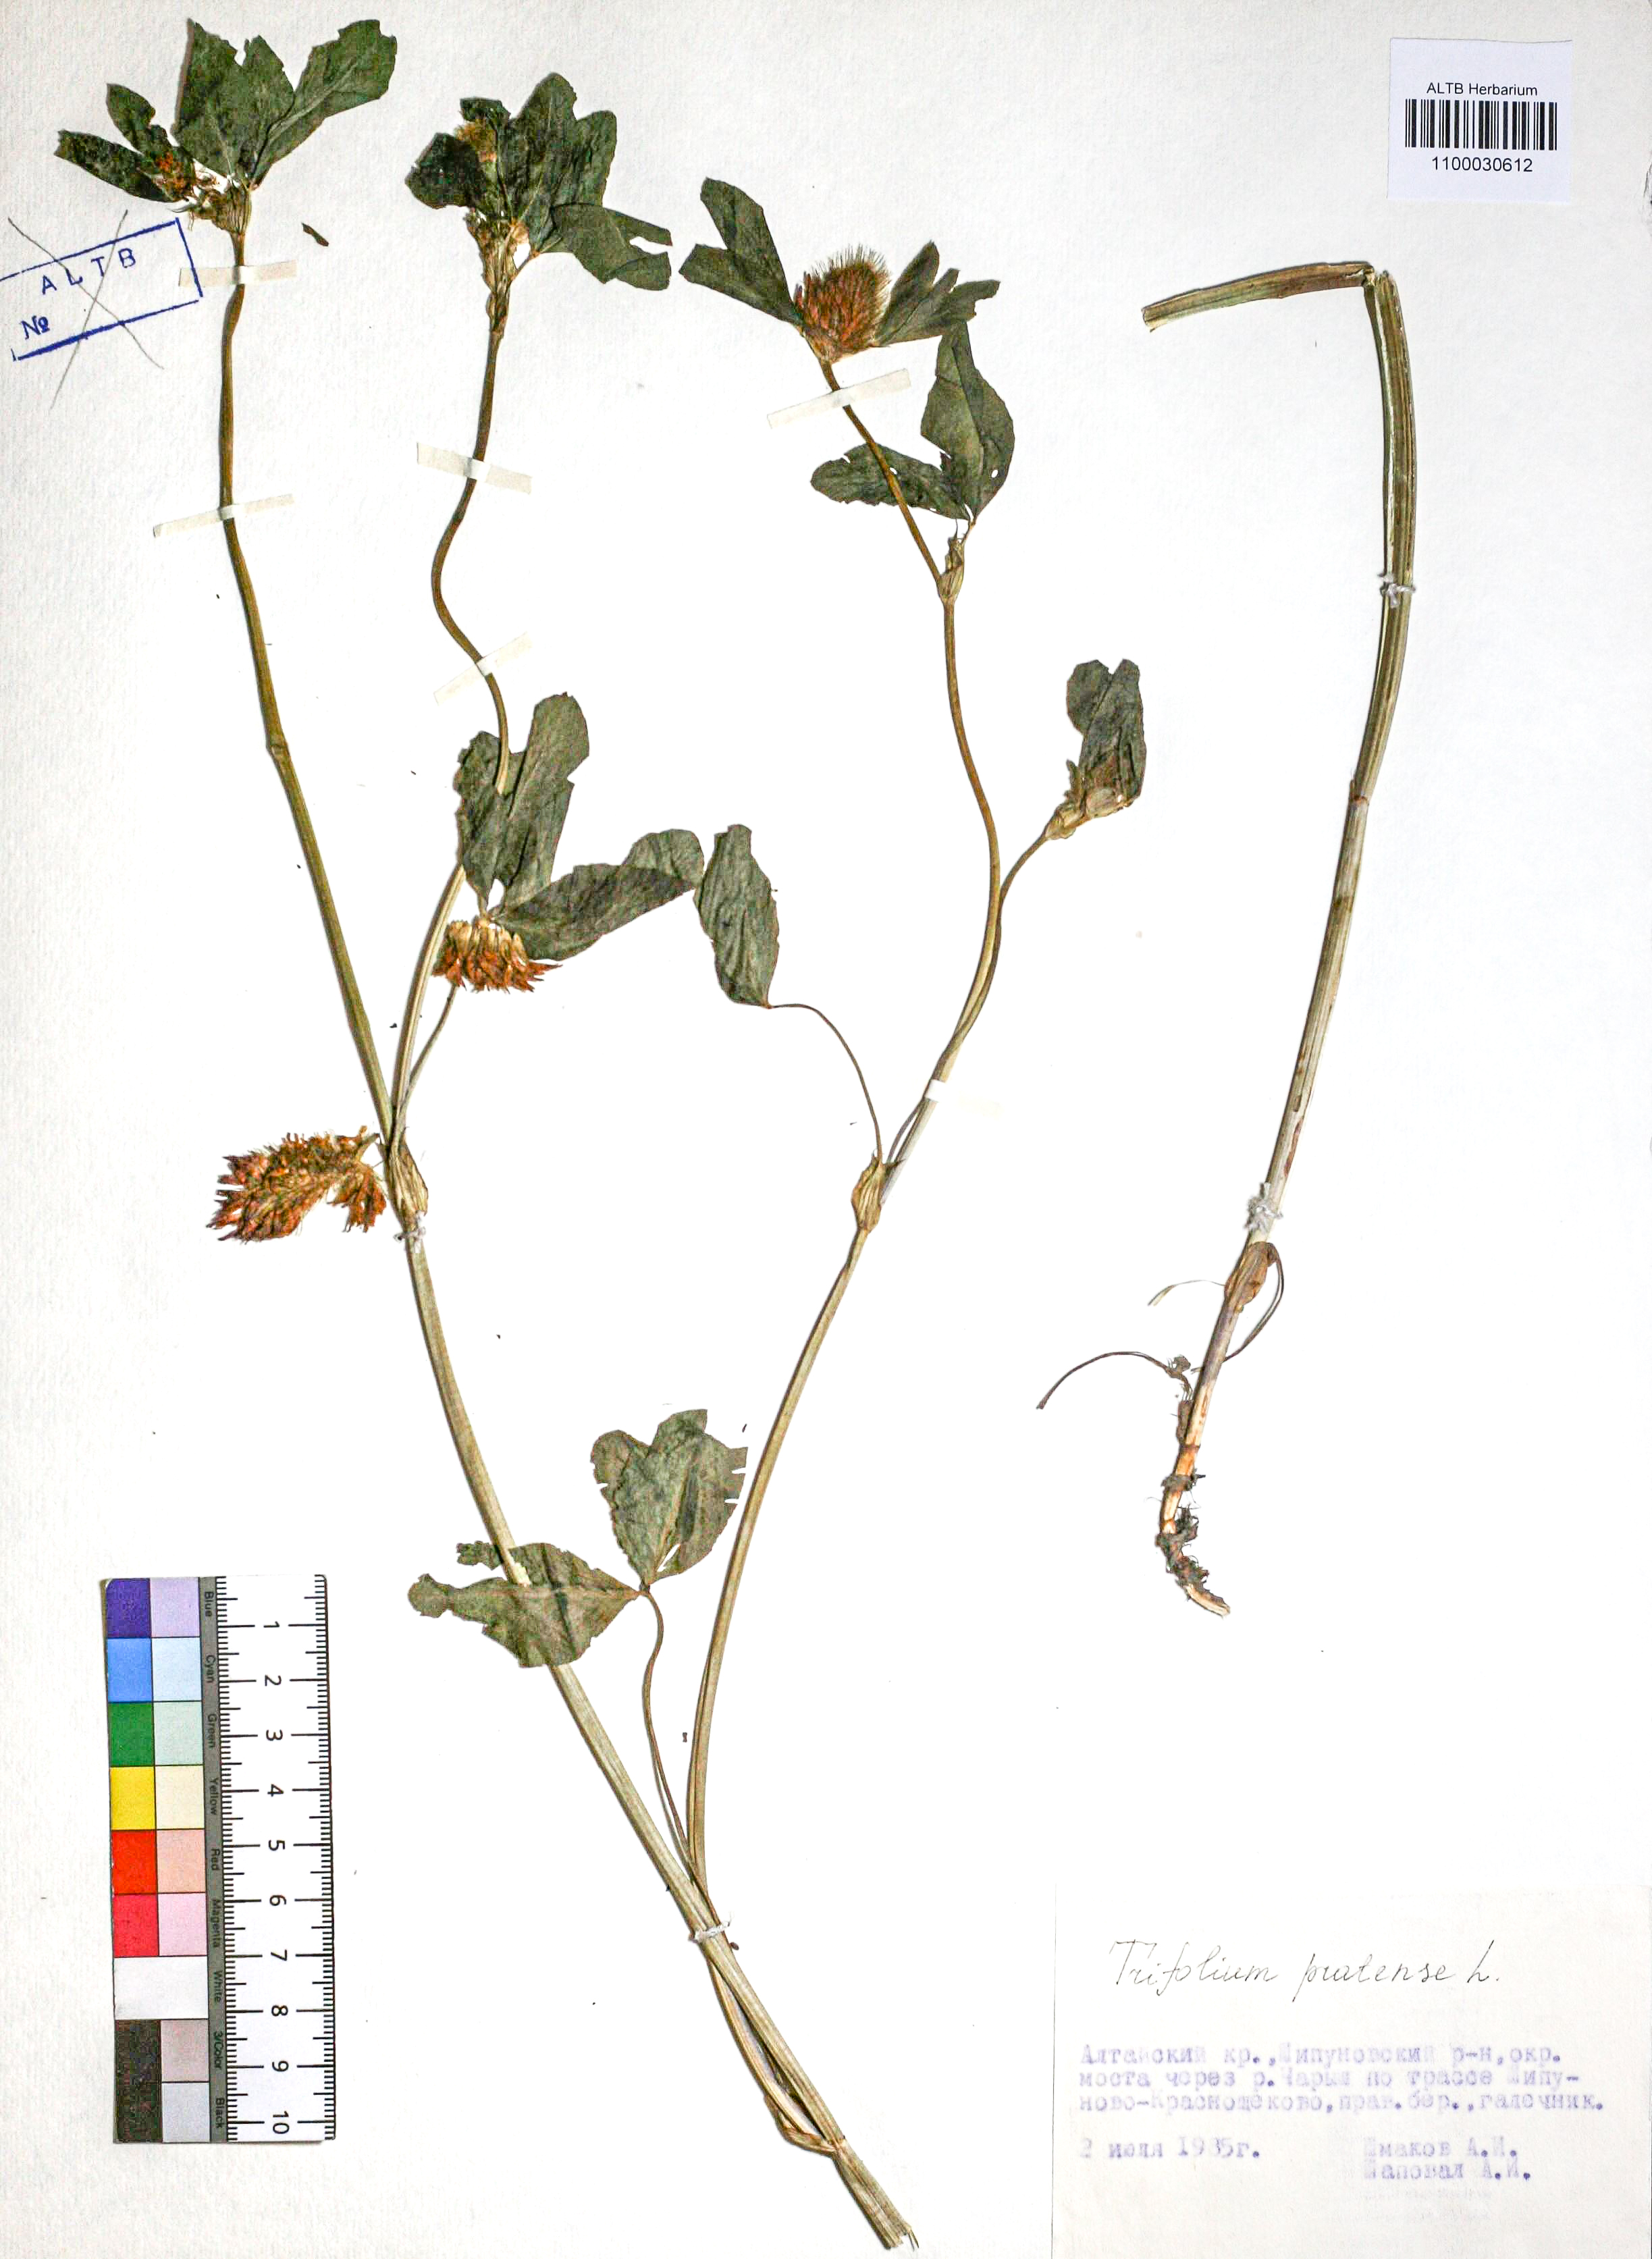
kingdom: Plantae
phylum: Tracheophyta
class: Magnoliopsida
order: Fabales
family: Fabaceae
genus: Trifolium
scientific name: Trifolium pratense
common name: Red clover
